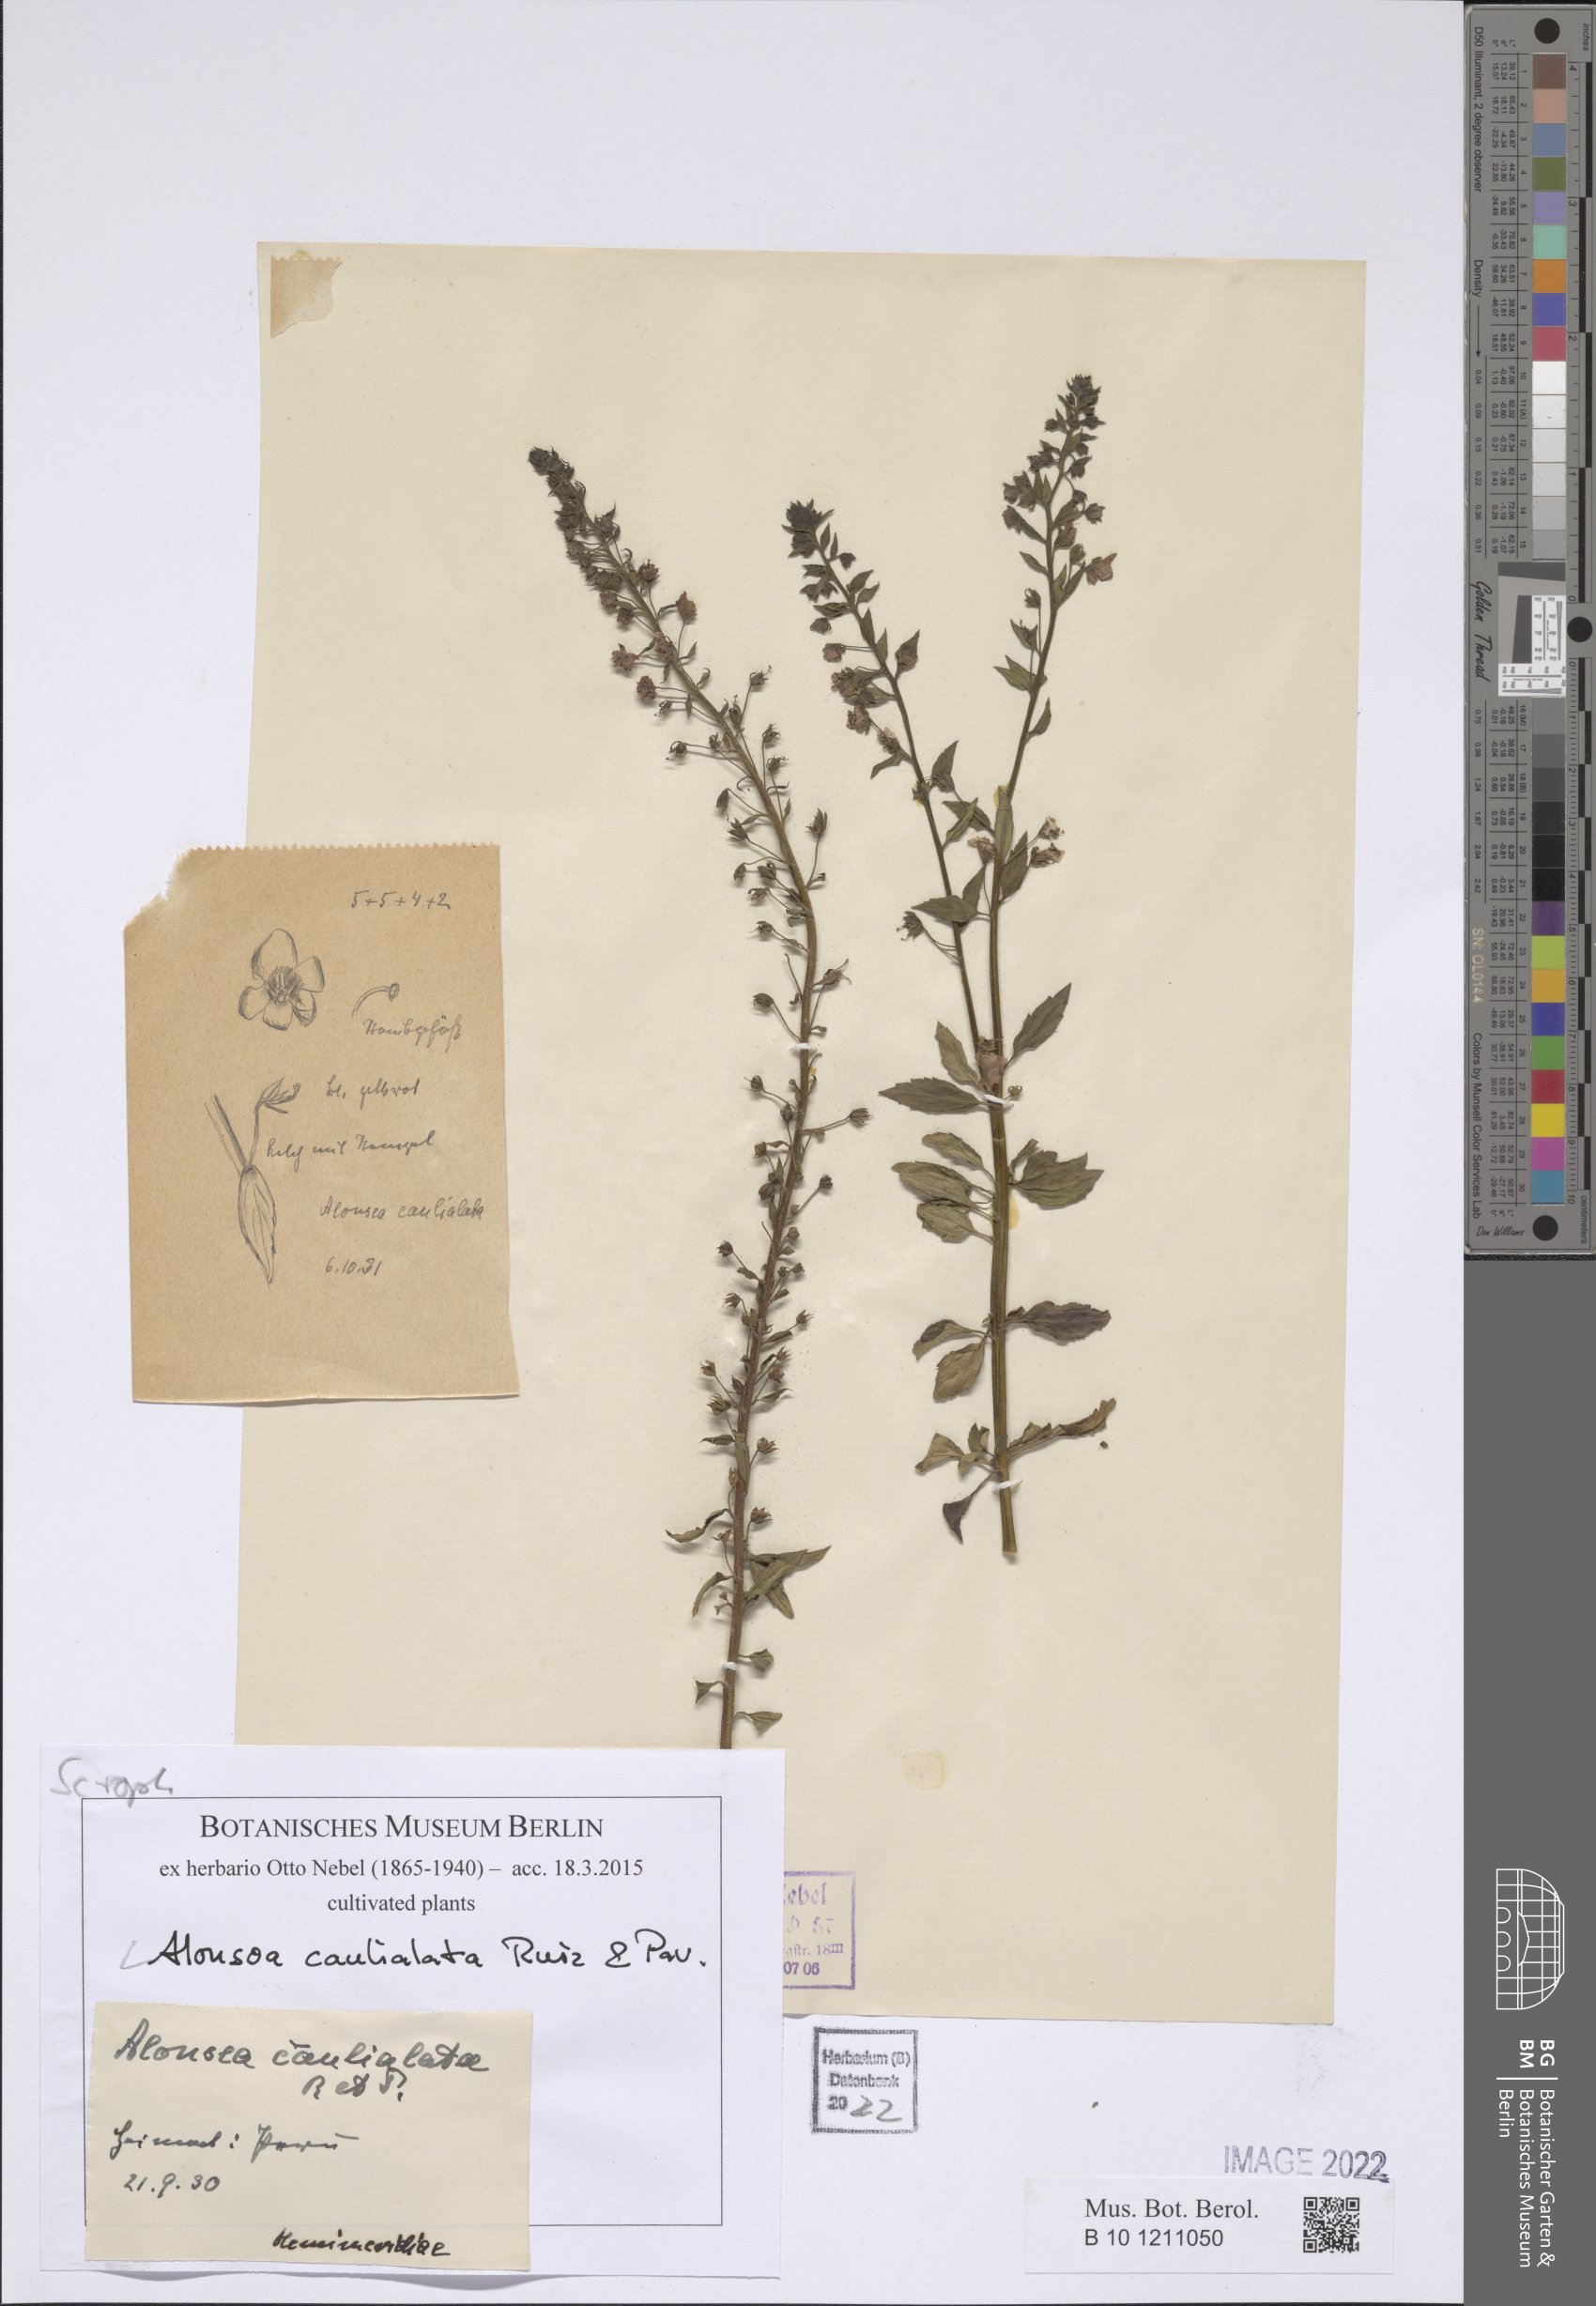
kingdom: Plantae
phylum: Tracheophyta
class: Magnoliopsida
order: Lamiales
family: Scrophulariaceae
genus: Alonsoa
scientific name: Alonsoa meridionalis
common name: Maskflower
